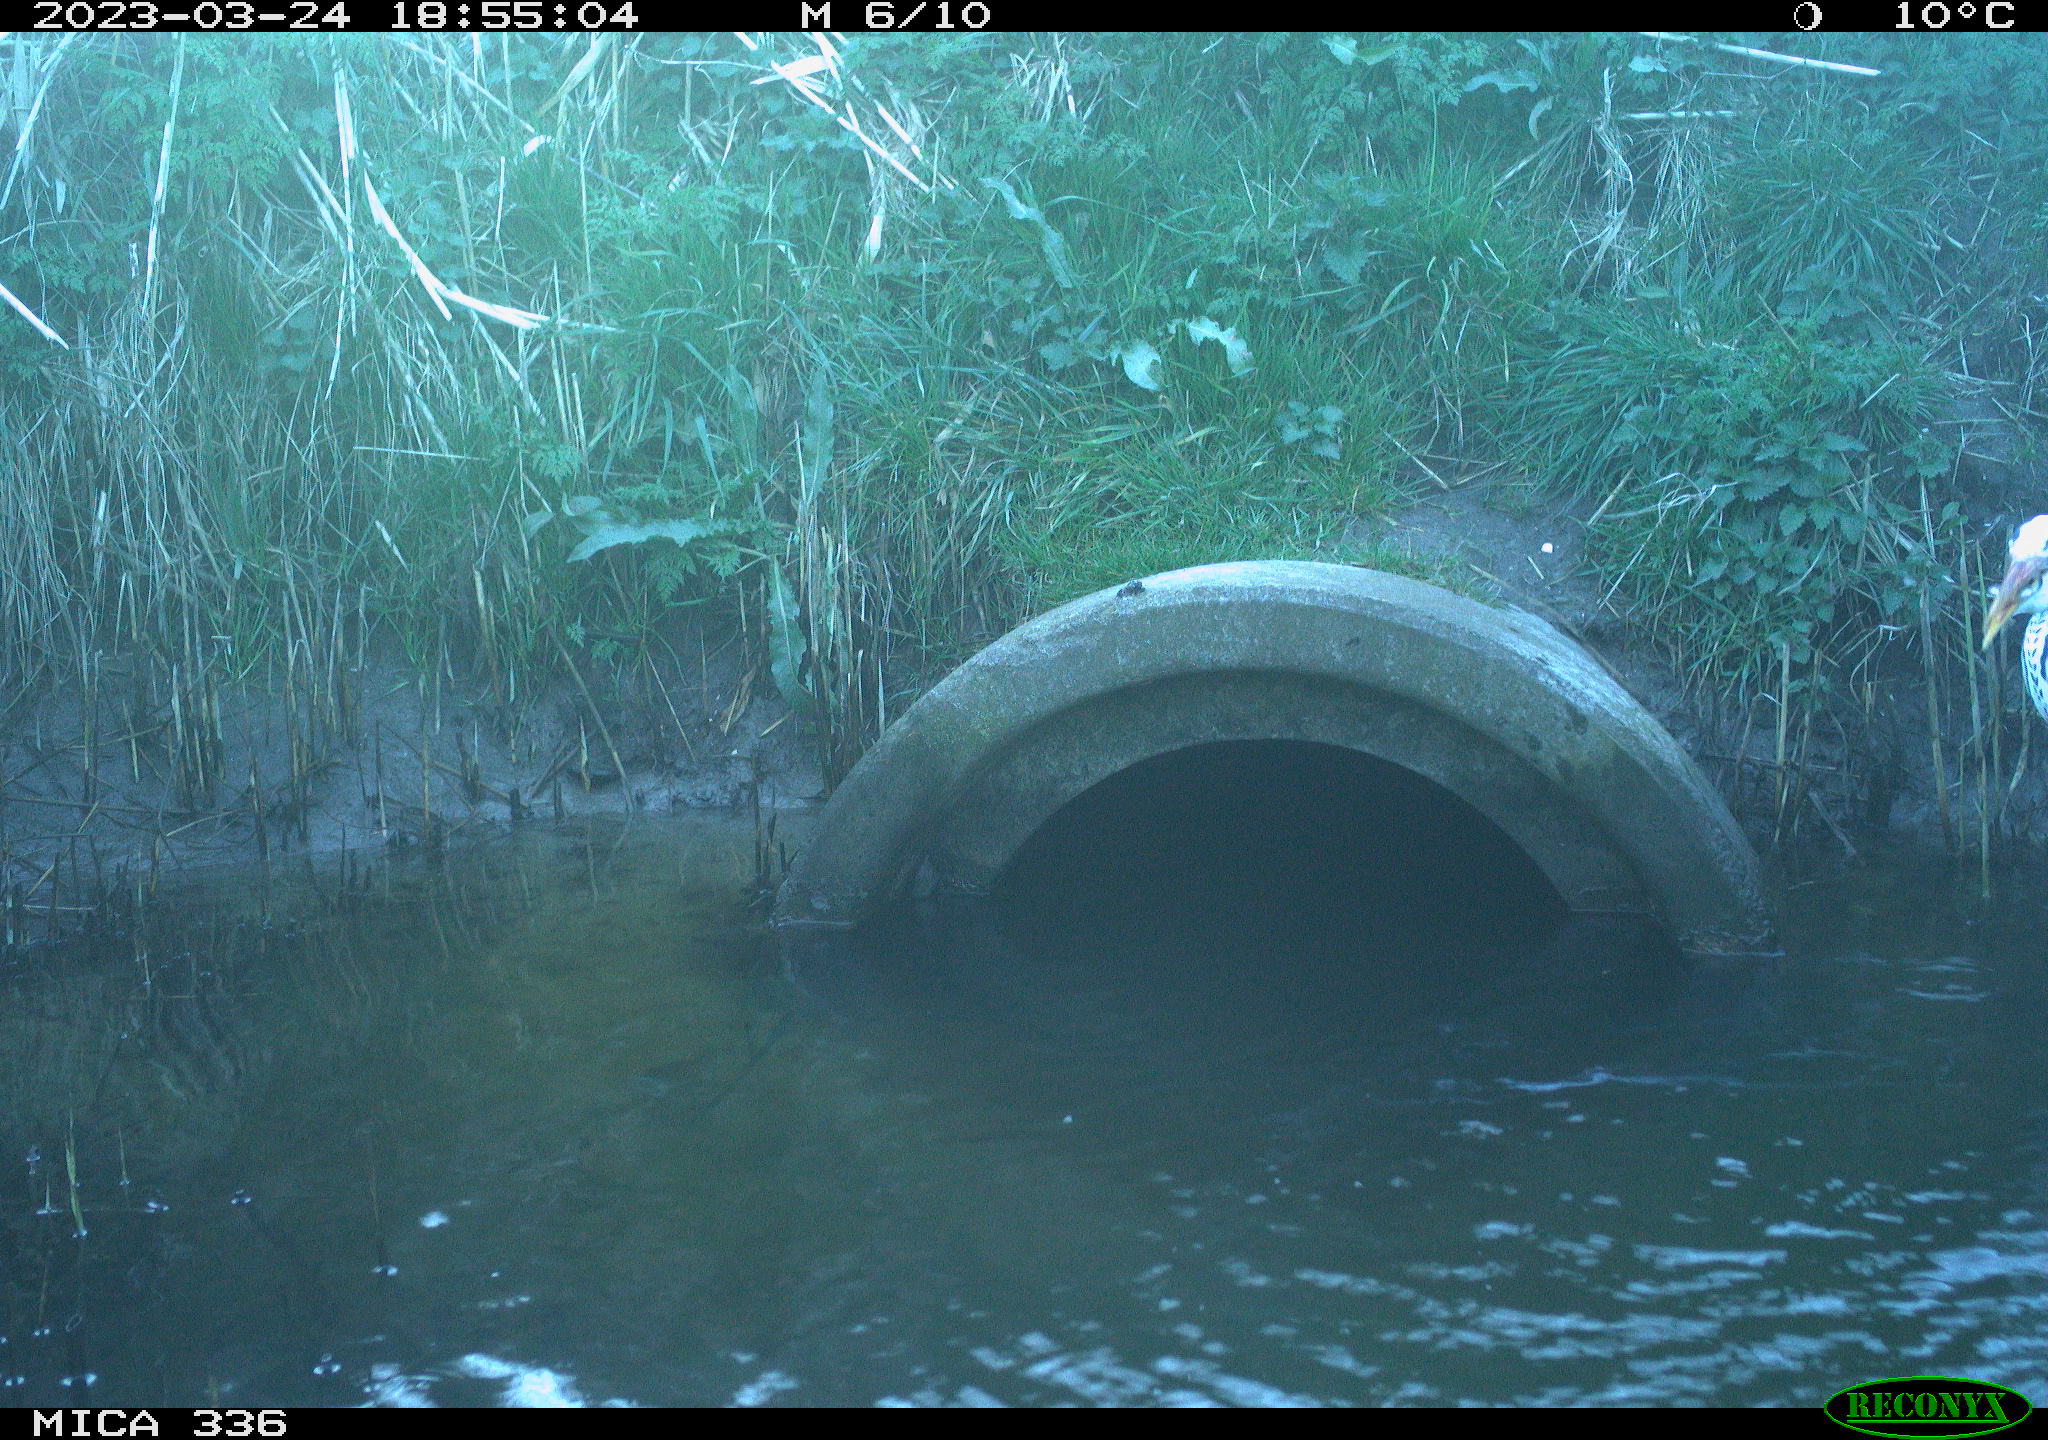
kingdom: Animalia
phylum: Chordata
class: Aves
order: Pelecaniformes
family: Ardeidae
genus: Ardea
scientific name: Ardea cinerea
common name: Grey heron
